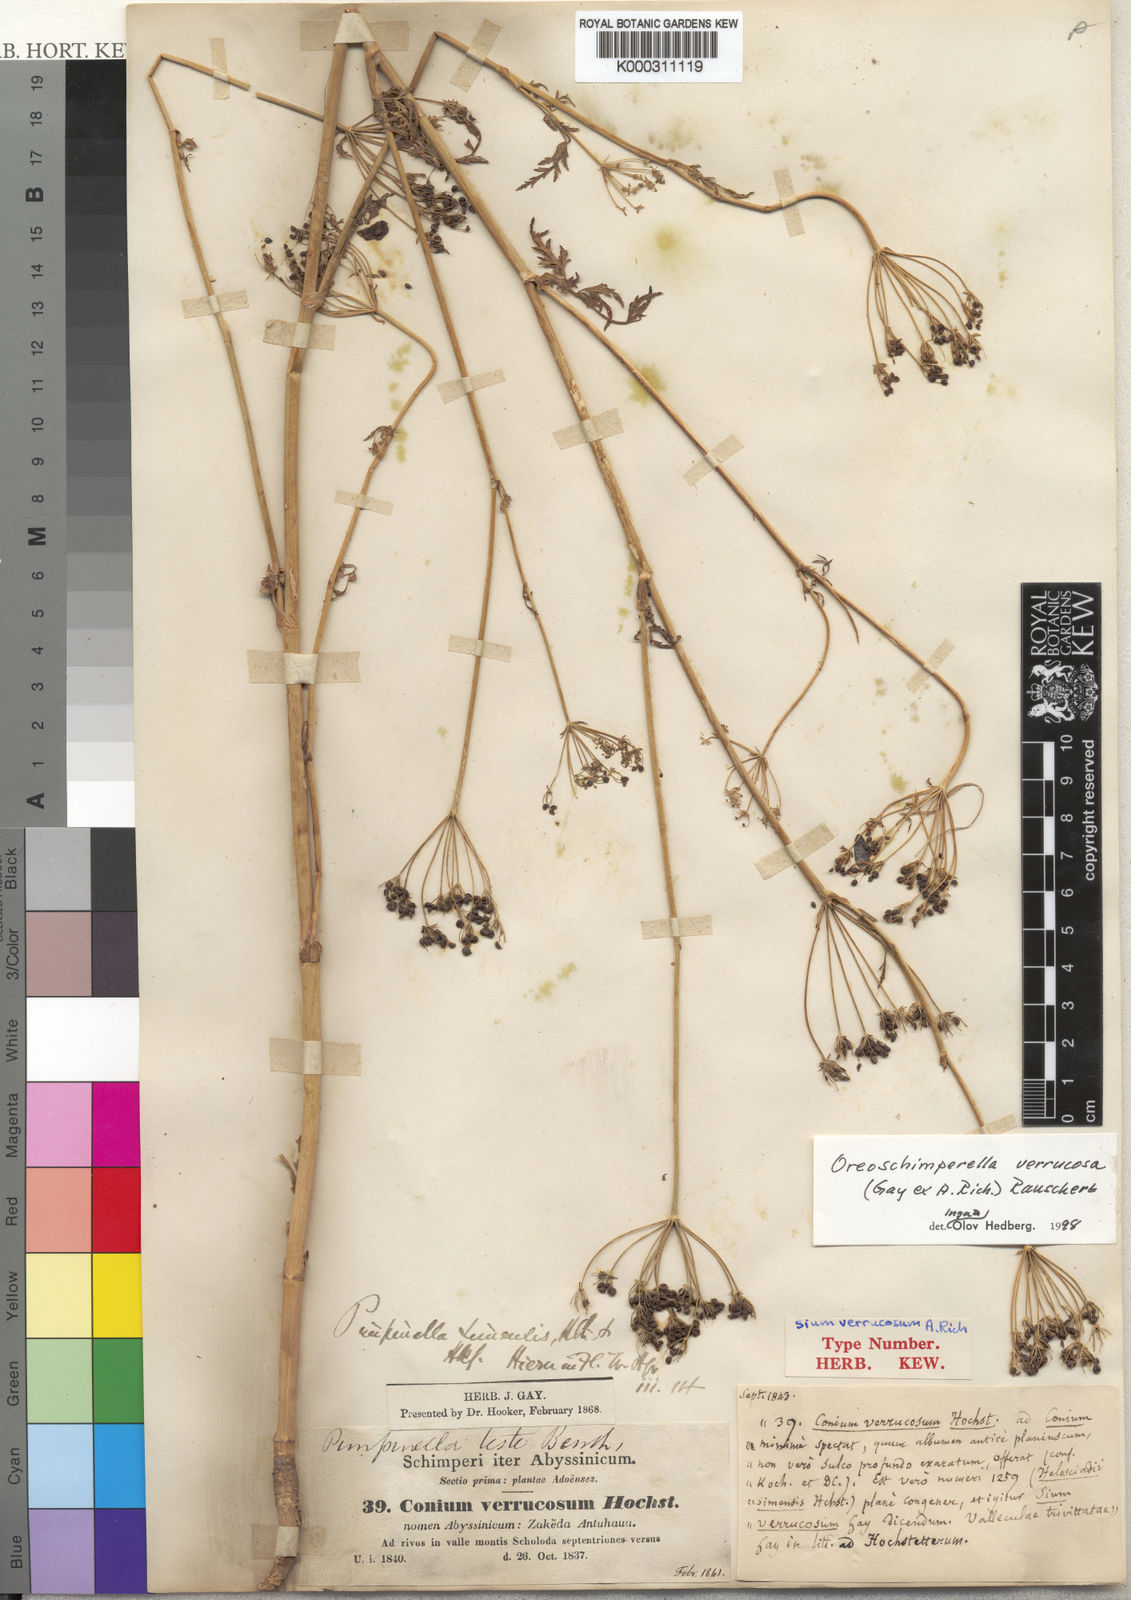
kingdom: Plantae
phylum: Tracheophyta
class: Magnoliopsida
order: Apiales
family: Apiaceae
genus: Oreoschimperella
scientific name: Oreoschimperella verrucosa
